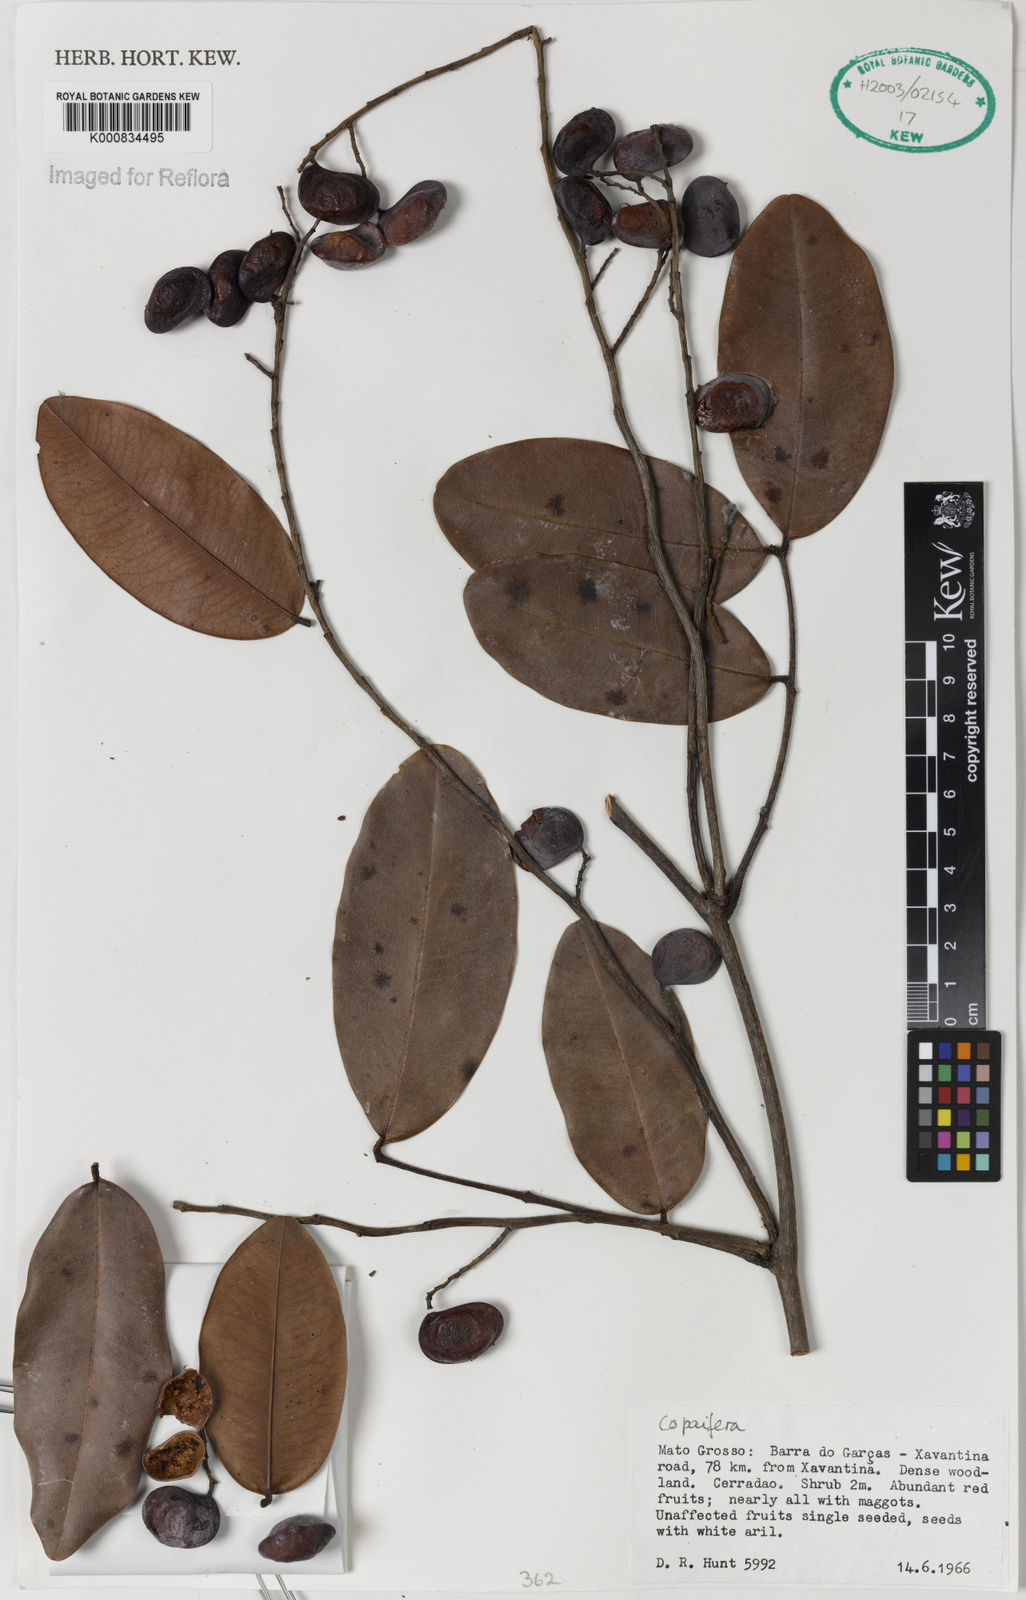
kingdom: Plantae
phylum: Tracheophyta
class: Magnoliopsida
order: Fabales
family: Fabaceae
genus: Copaifera
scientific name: Copaifera
